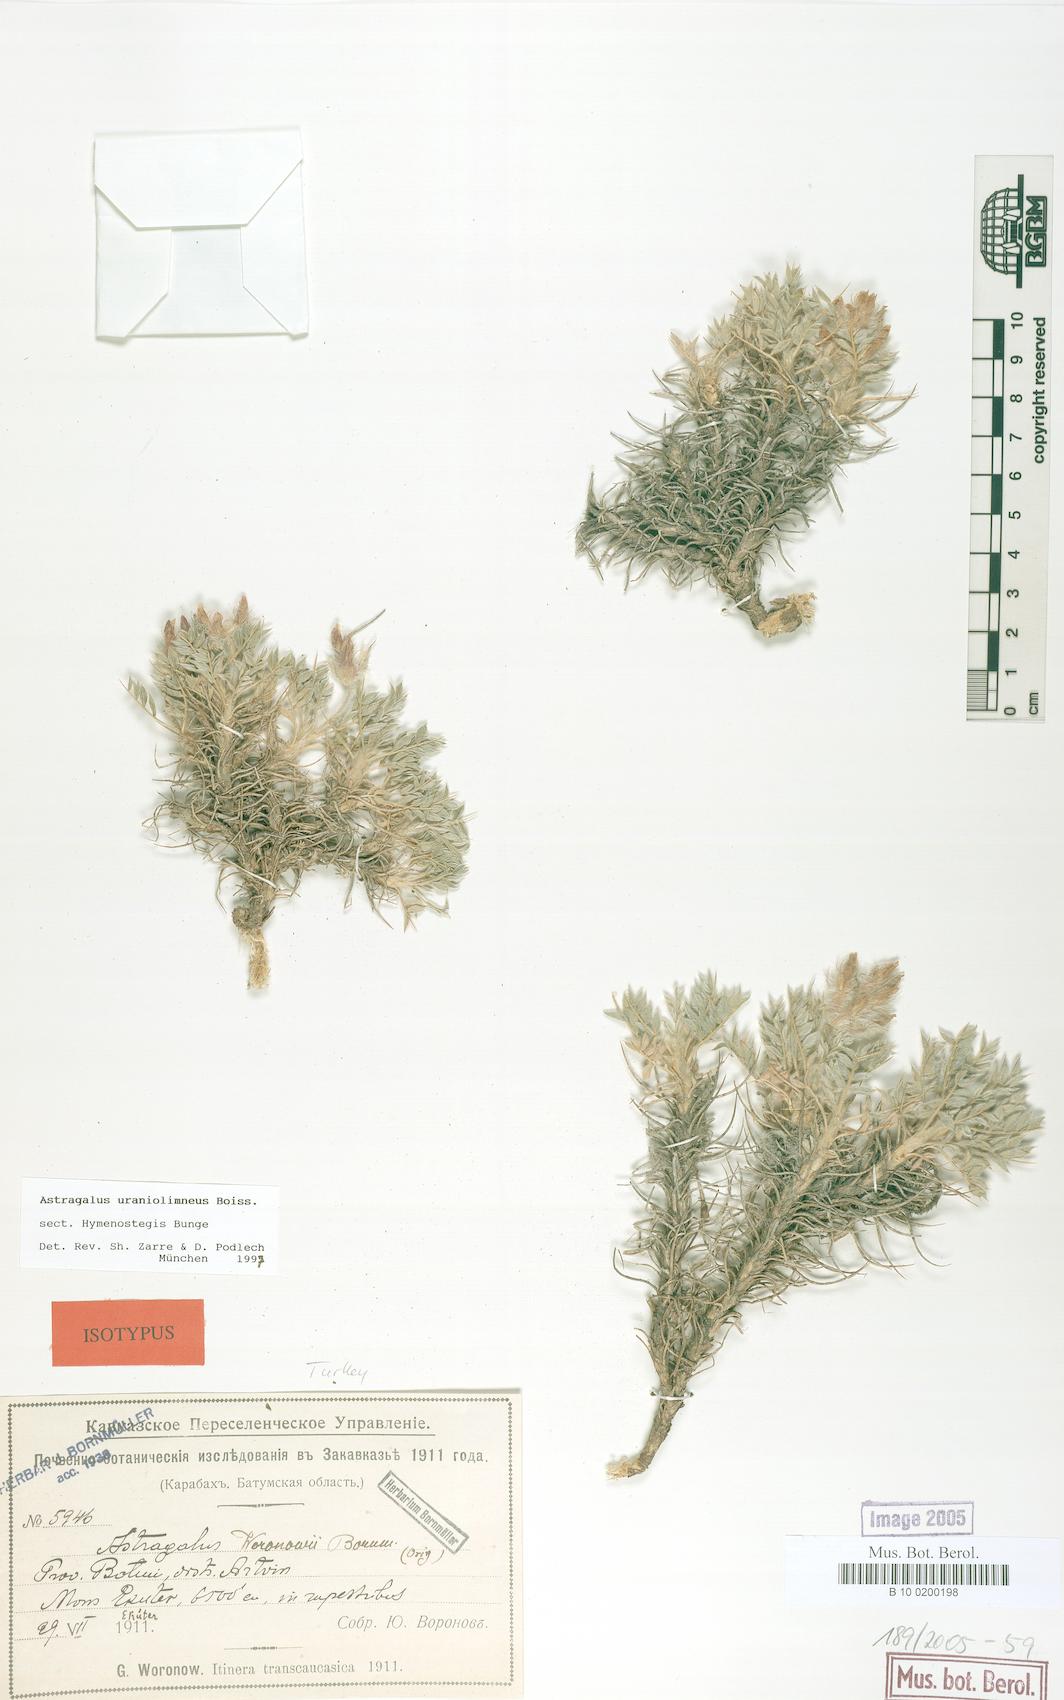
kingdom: Plantae
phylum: Tracheophyta
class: Magnoliopsida
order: Fabales
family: Fabaceae
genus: Astragalus
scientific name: Astragalus uraniolimneus
